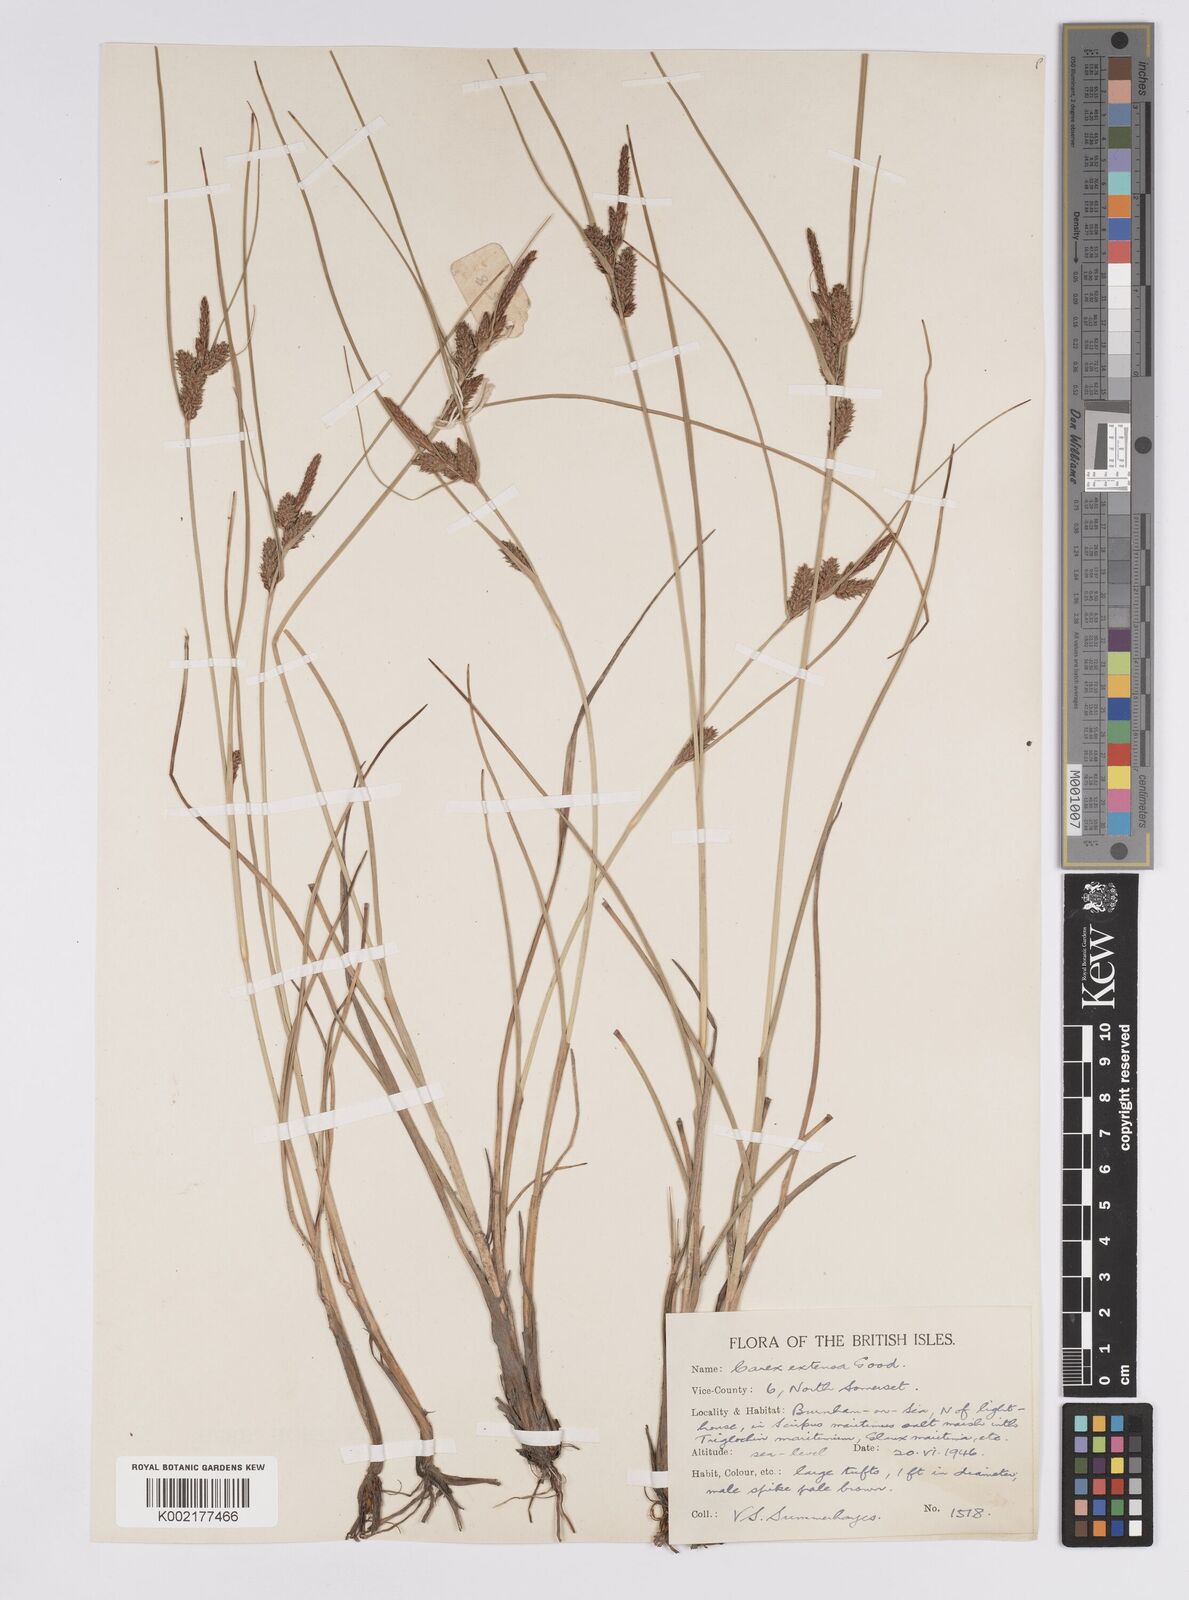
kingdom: Plantae
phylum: Tracheophyta
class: Liliopsida
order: Poales
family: Cyperaceae
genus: Carex
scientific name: Carex extensa
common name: Long-bracted sedge
